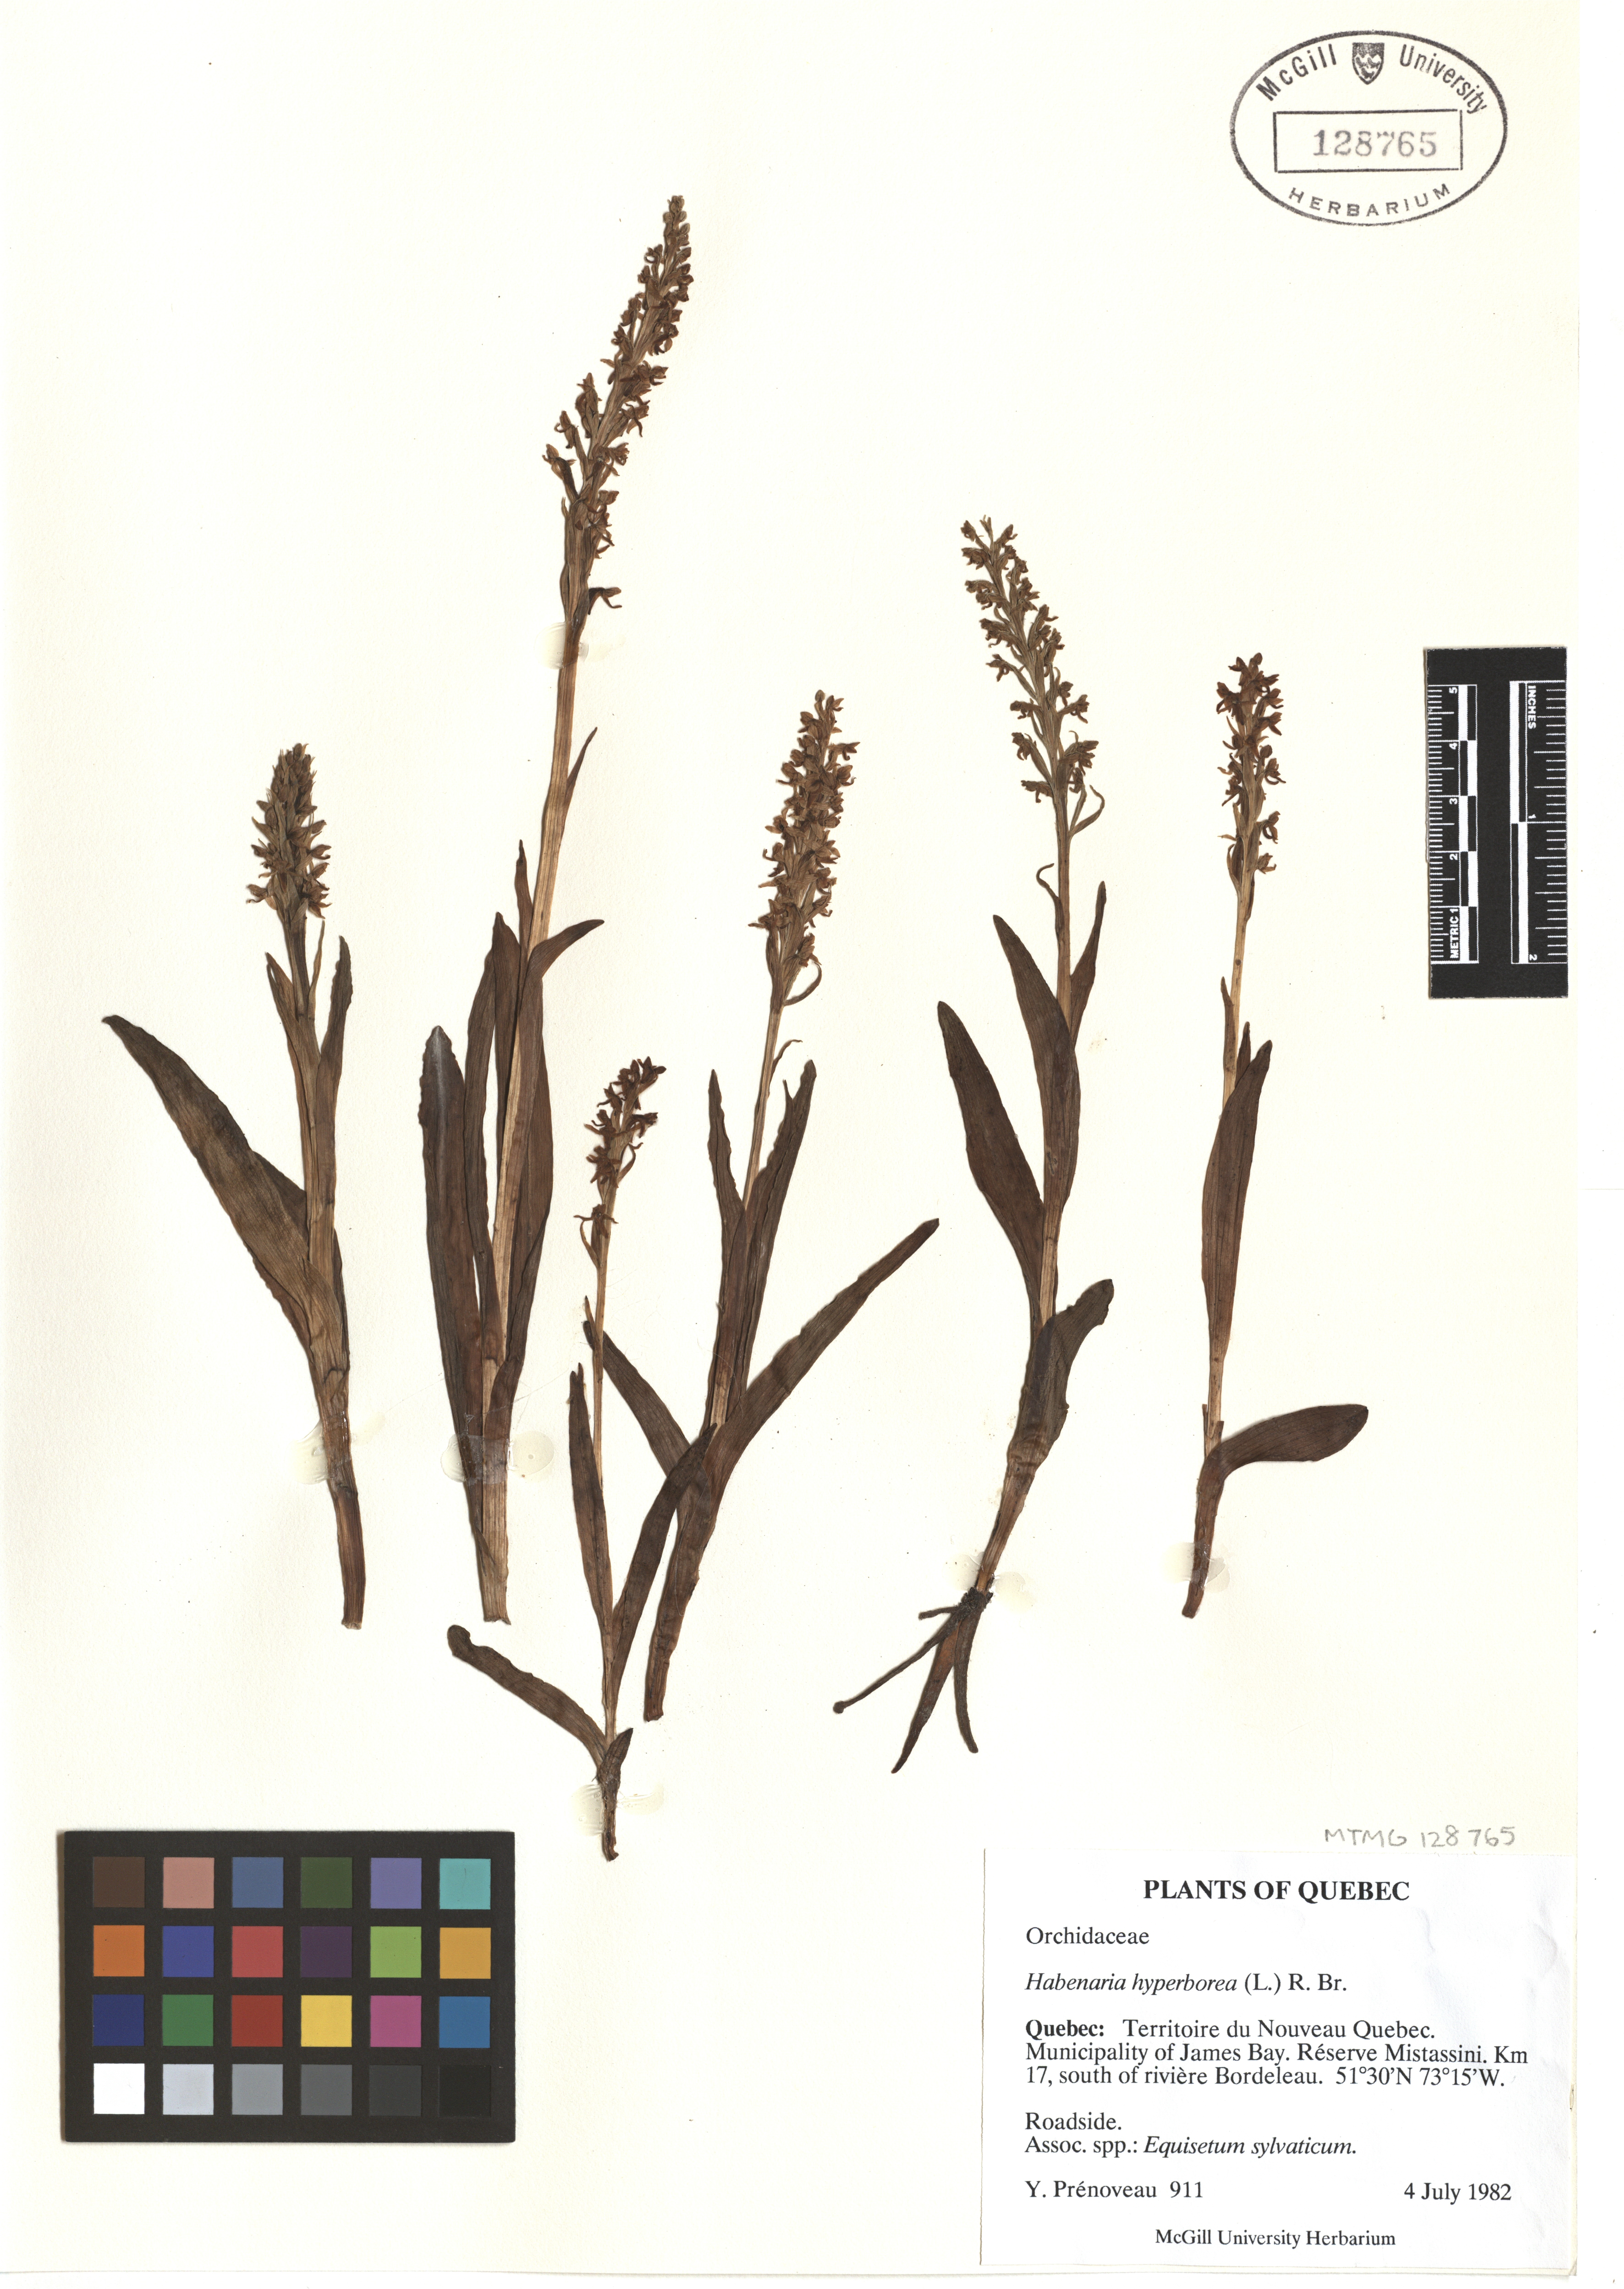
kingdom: Plantae
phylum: Tracheophyta
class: Liliopsida
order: Asparagales
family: Orchidaceae
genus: Platanthera
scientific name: Platanthera hyperborea
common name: Northern green orchid
